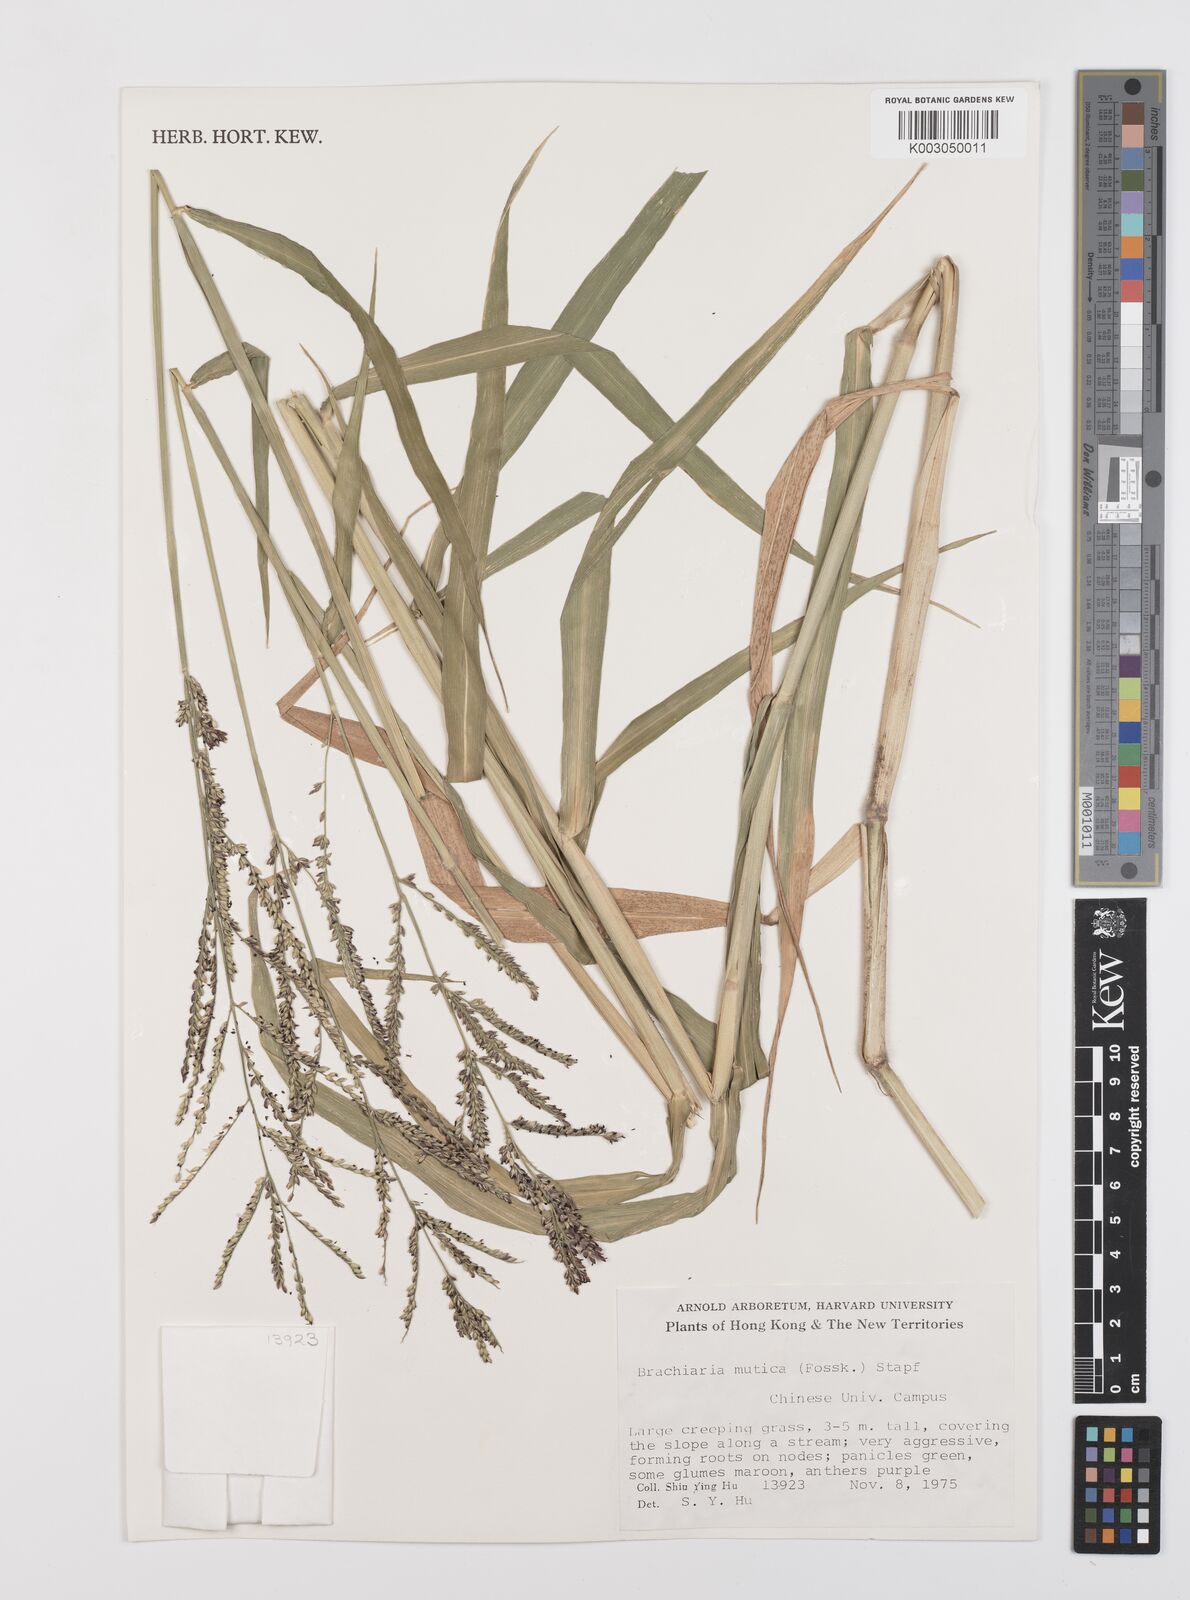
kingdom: Plantae
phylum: Tracheophyta
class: Liliopsida
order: Poales
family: Poaceae
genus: Urochloa
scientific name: Urochloa mutica
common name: Para grass
